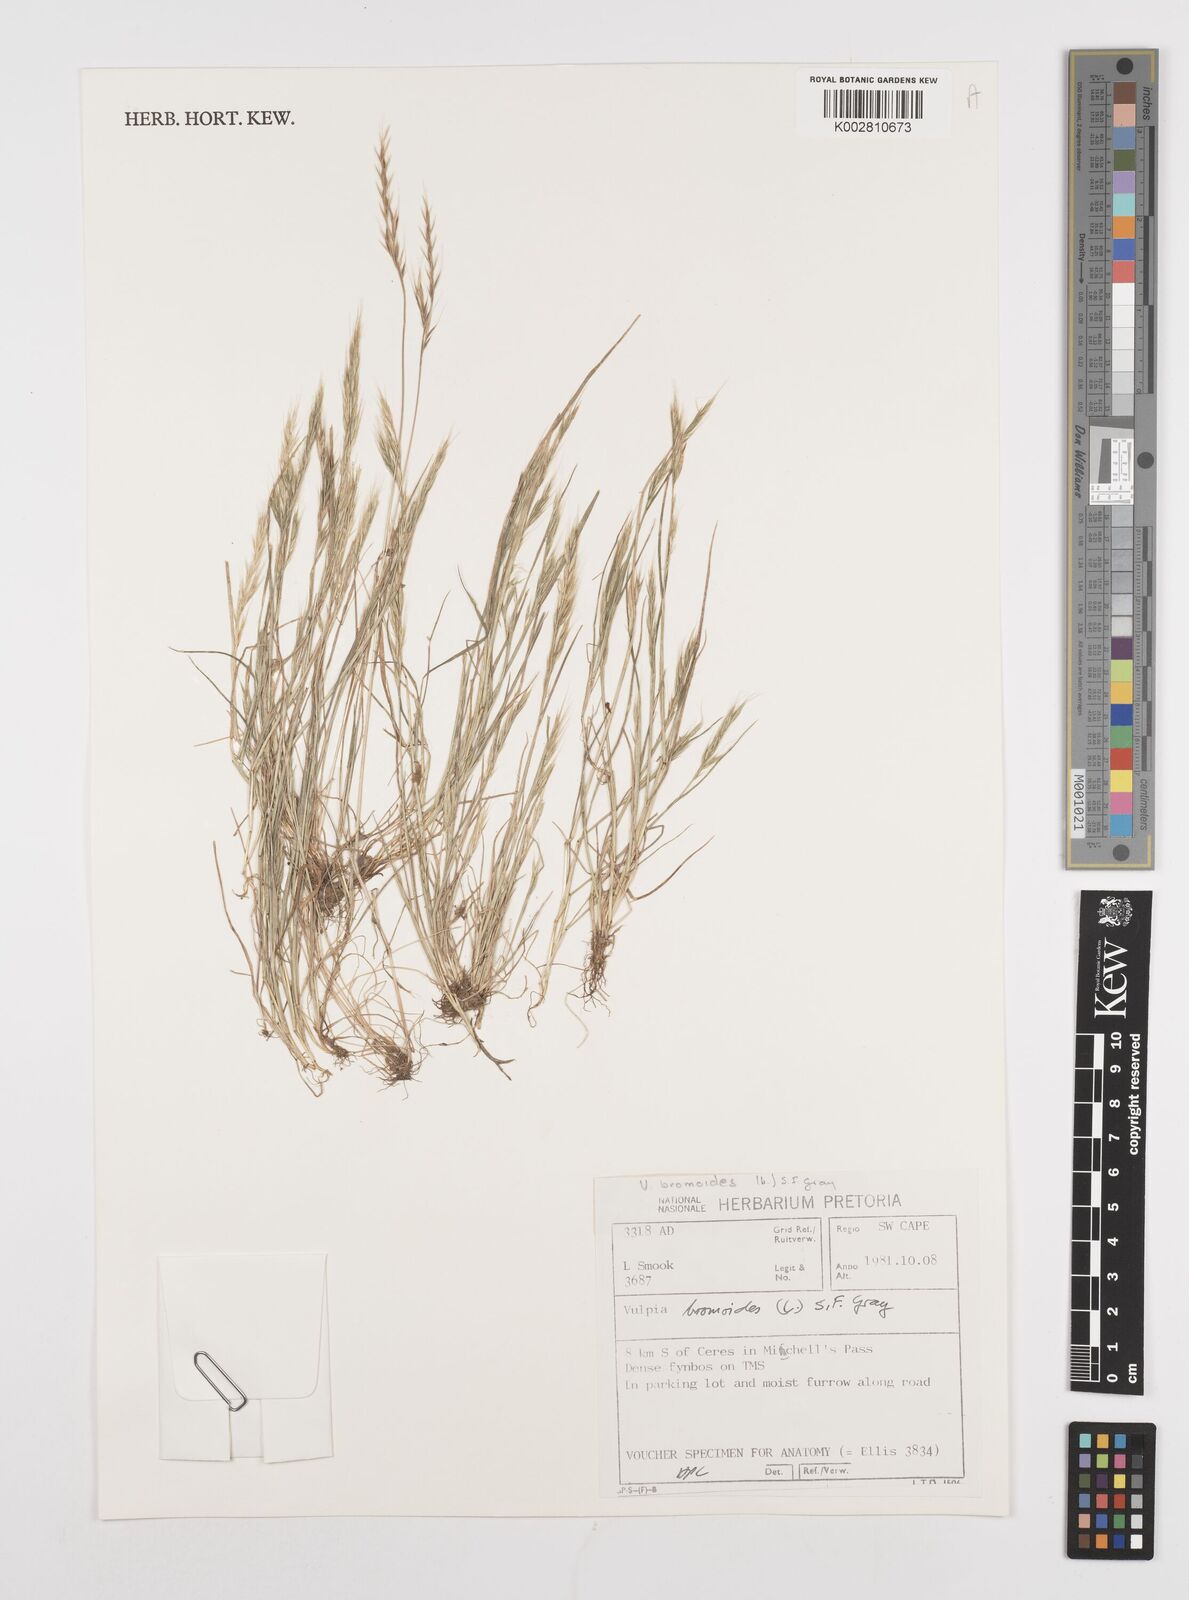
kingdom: Plantae
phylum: Tracheophyta
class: Liliopsida
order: Poales
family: Poaceae
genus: Festuca
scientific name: Festuca bromoides
